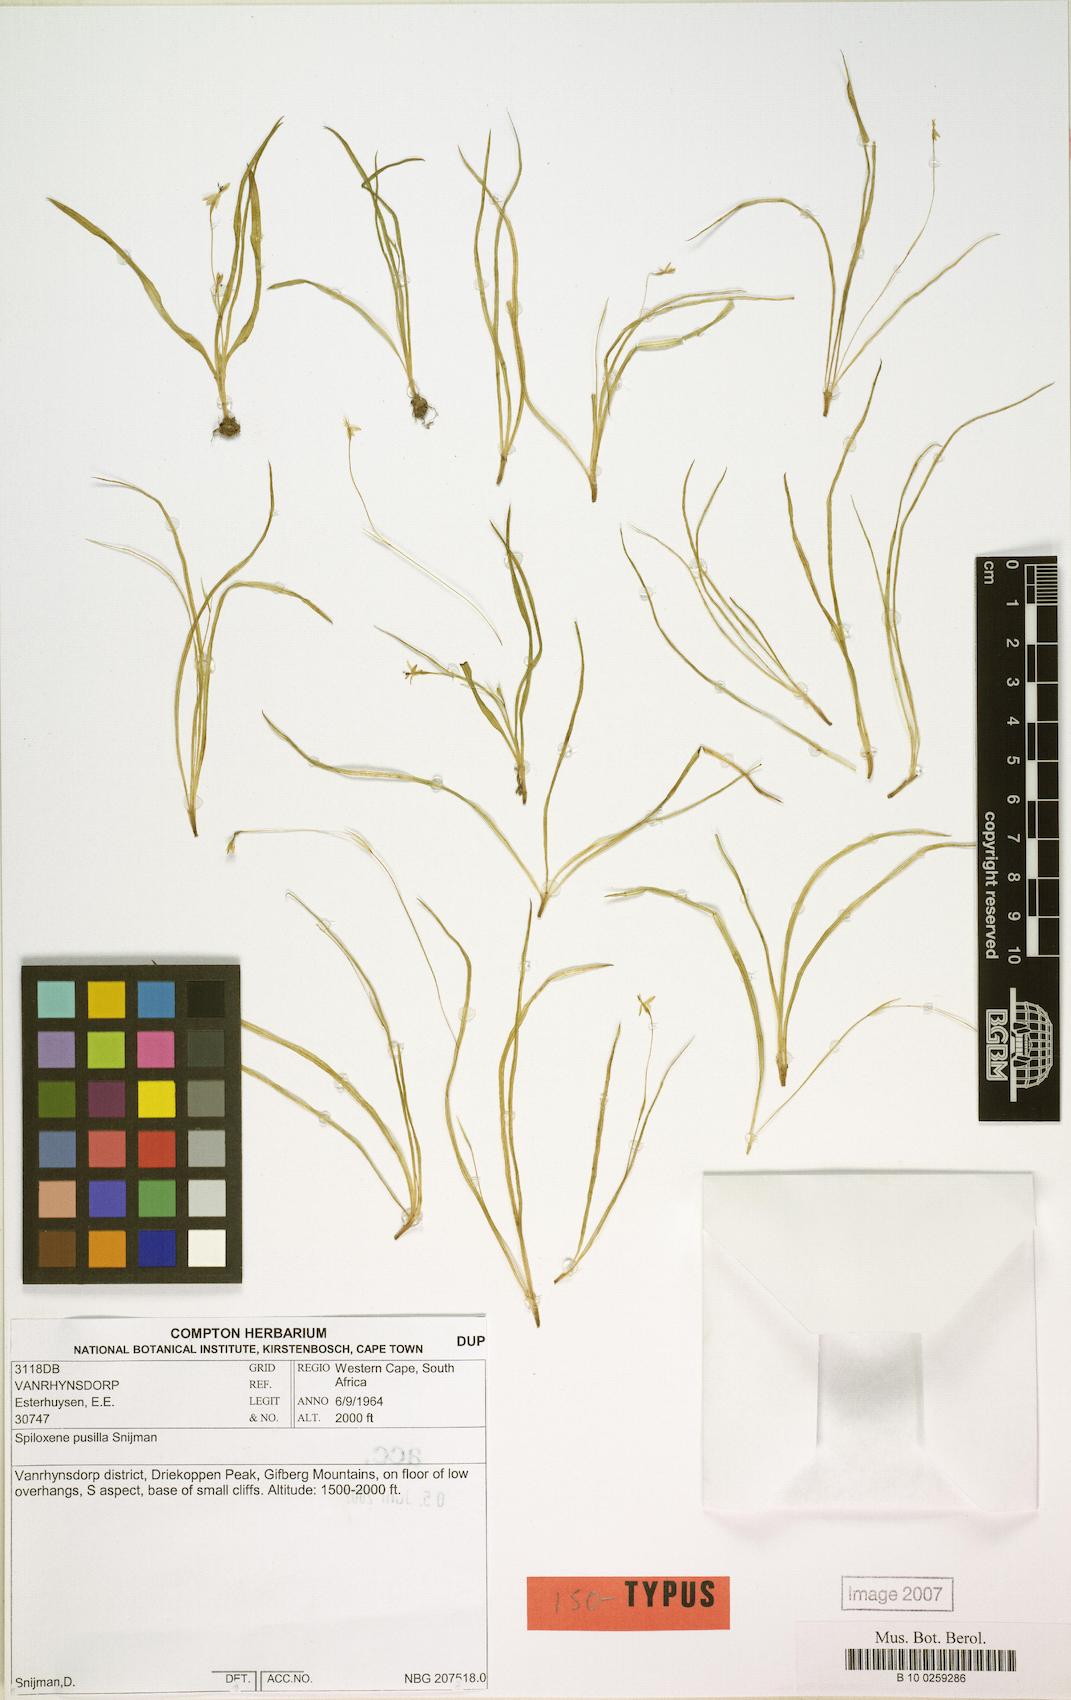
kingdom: Plantae
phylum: Tracheophyta
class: Liliopsida
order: Asparagales
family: Hypoxidaceae
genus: Pauridia
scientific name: Pauridia pusilla
